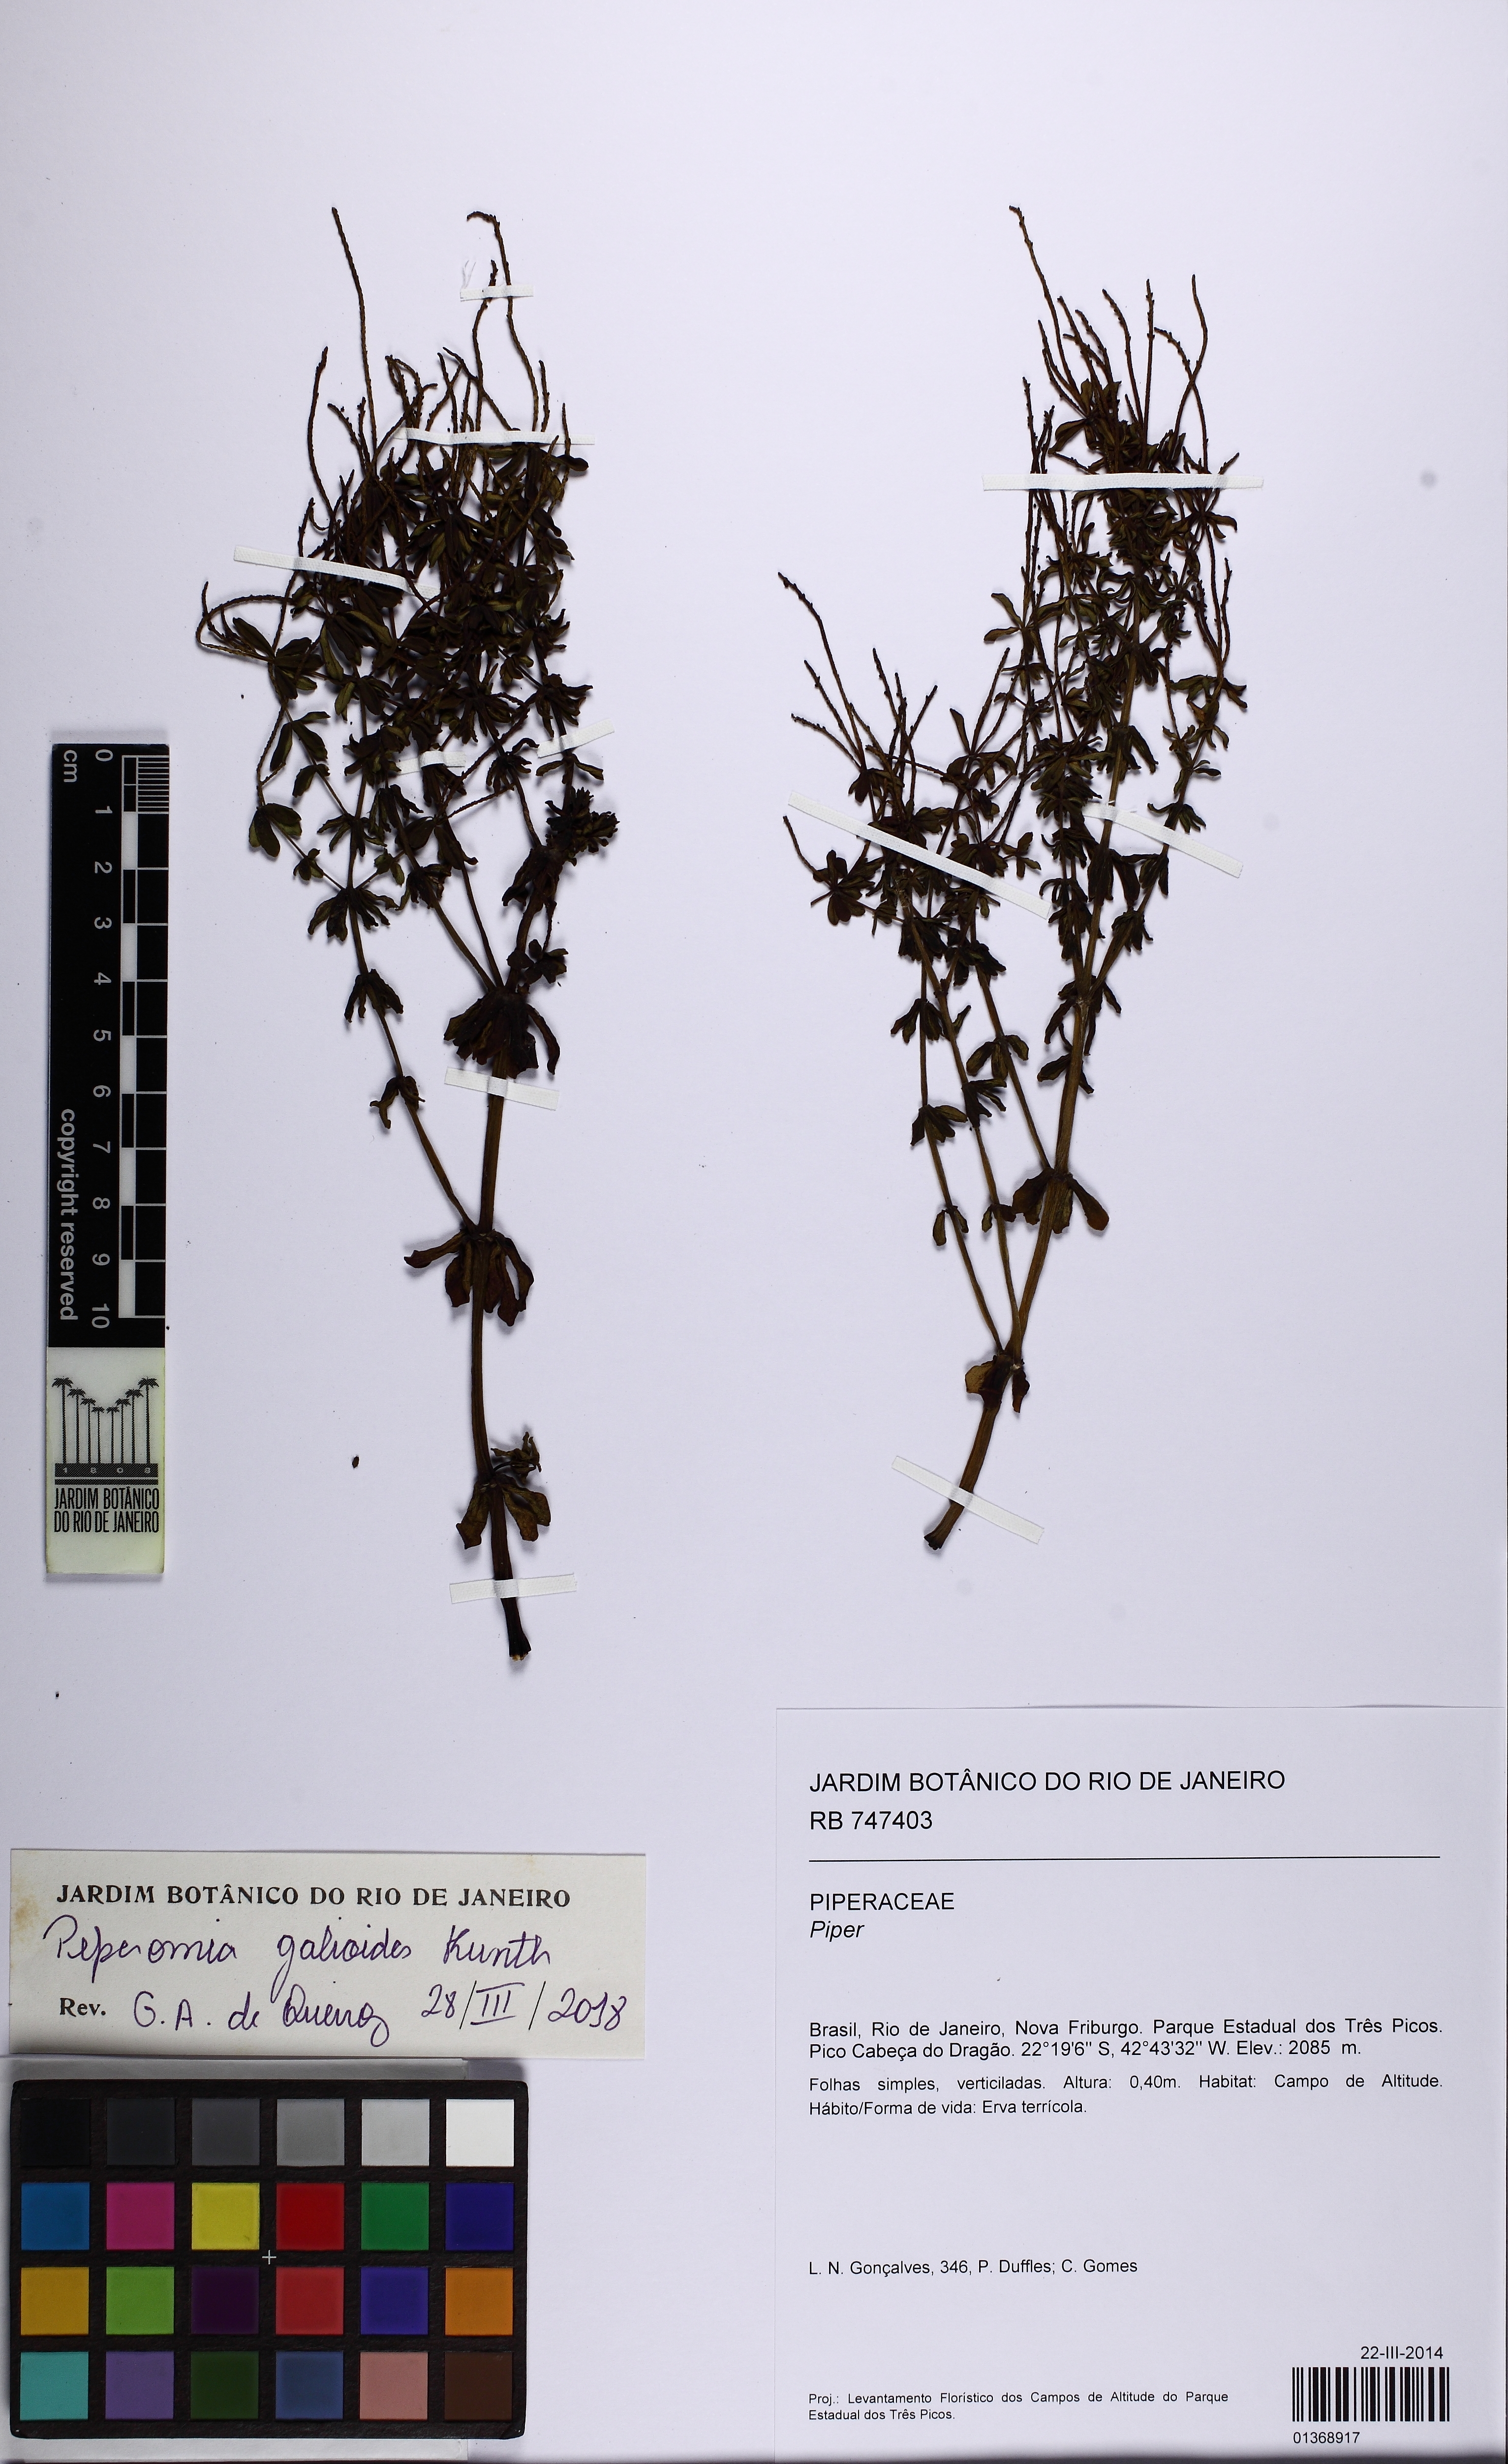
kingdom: Plantae
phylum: Tracheophyta
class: Magnoliopsida
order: Piperales
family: Piperaceae
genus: Peperomia
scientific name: Peperomia galioides
